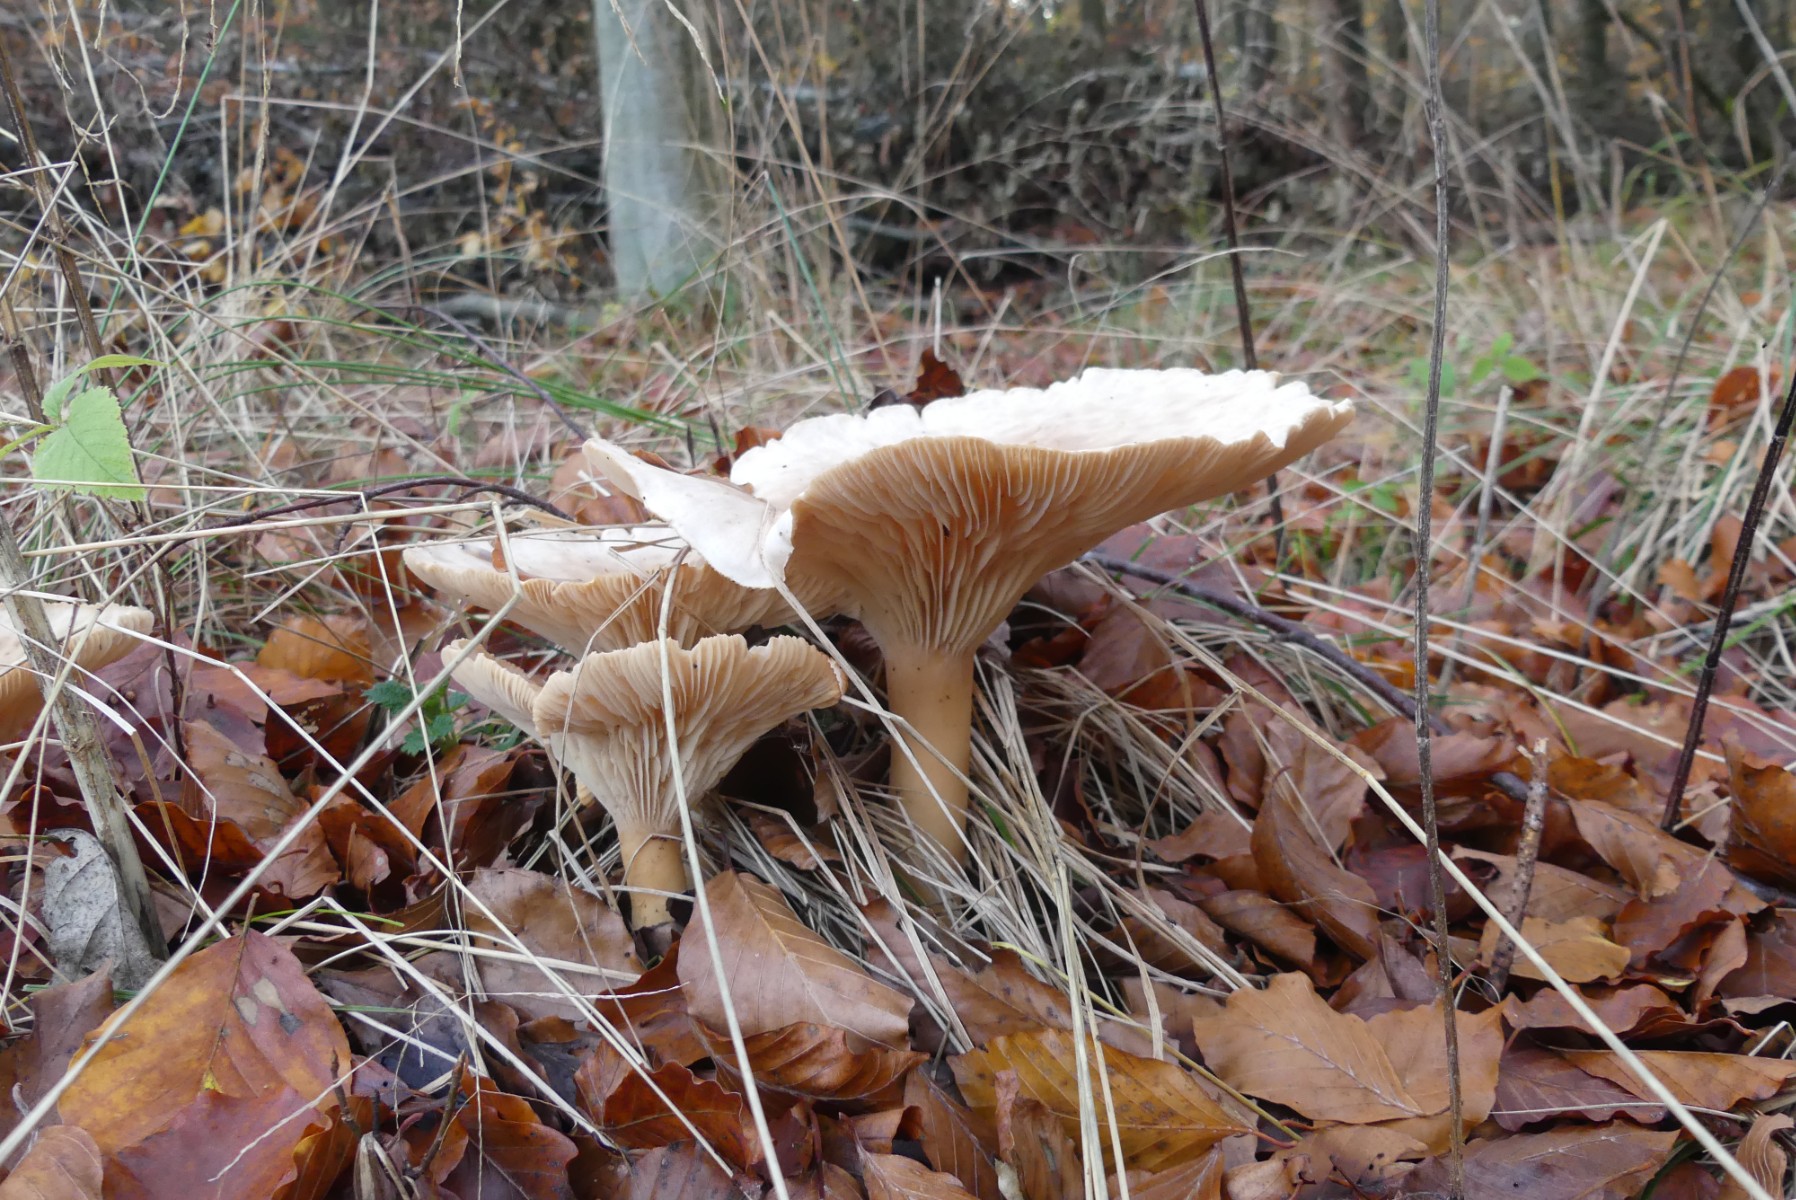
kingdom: Fungi
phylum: Basidiomycota
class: Agaricomycetes
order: Agaricales
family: Tricholomataceae
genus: Infundibulicybe
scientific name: Infundibulicybe geotropa
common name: stor tragthat
